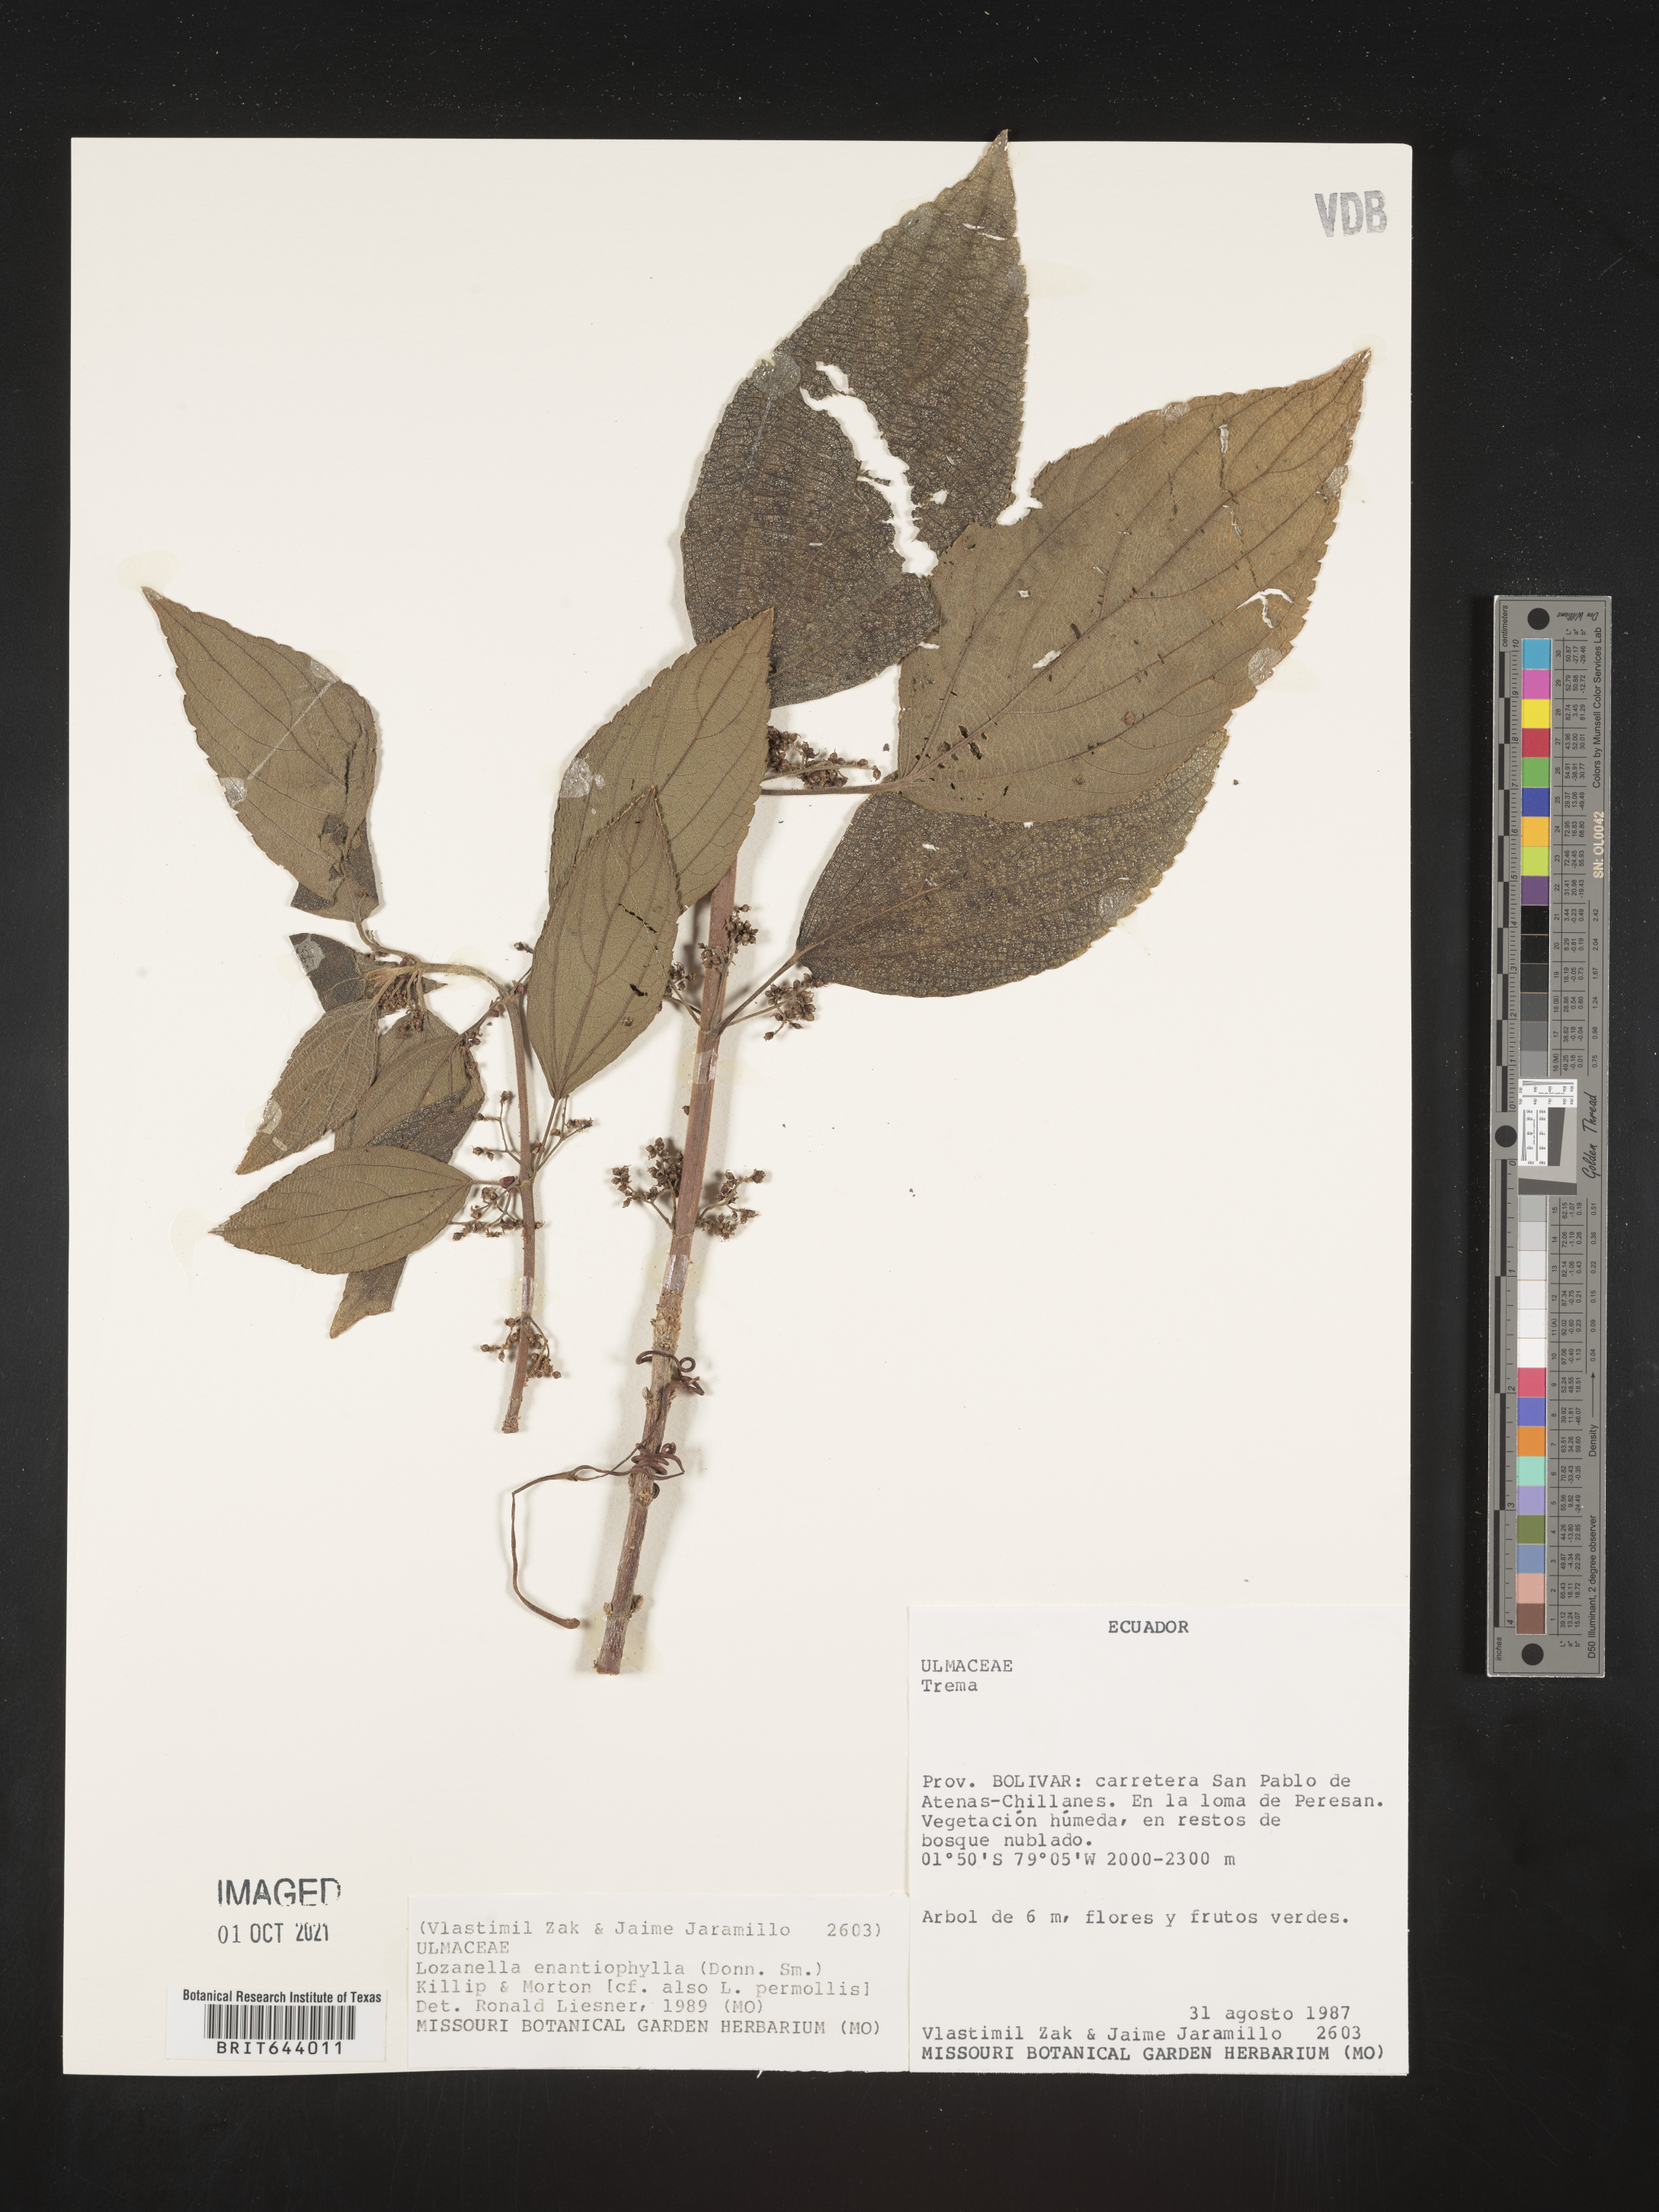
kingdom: Plantae
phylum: Tracheophyta
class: Magnoliopsida
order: Rosales
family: Cannabaceae
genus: Lozanella
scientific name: Lozanella enantiophylla
